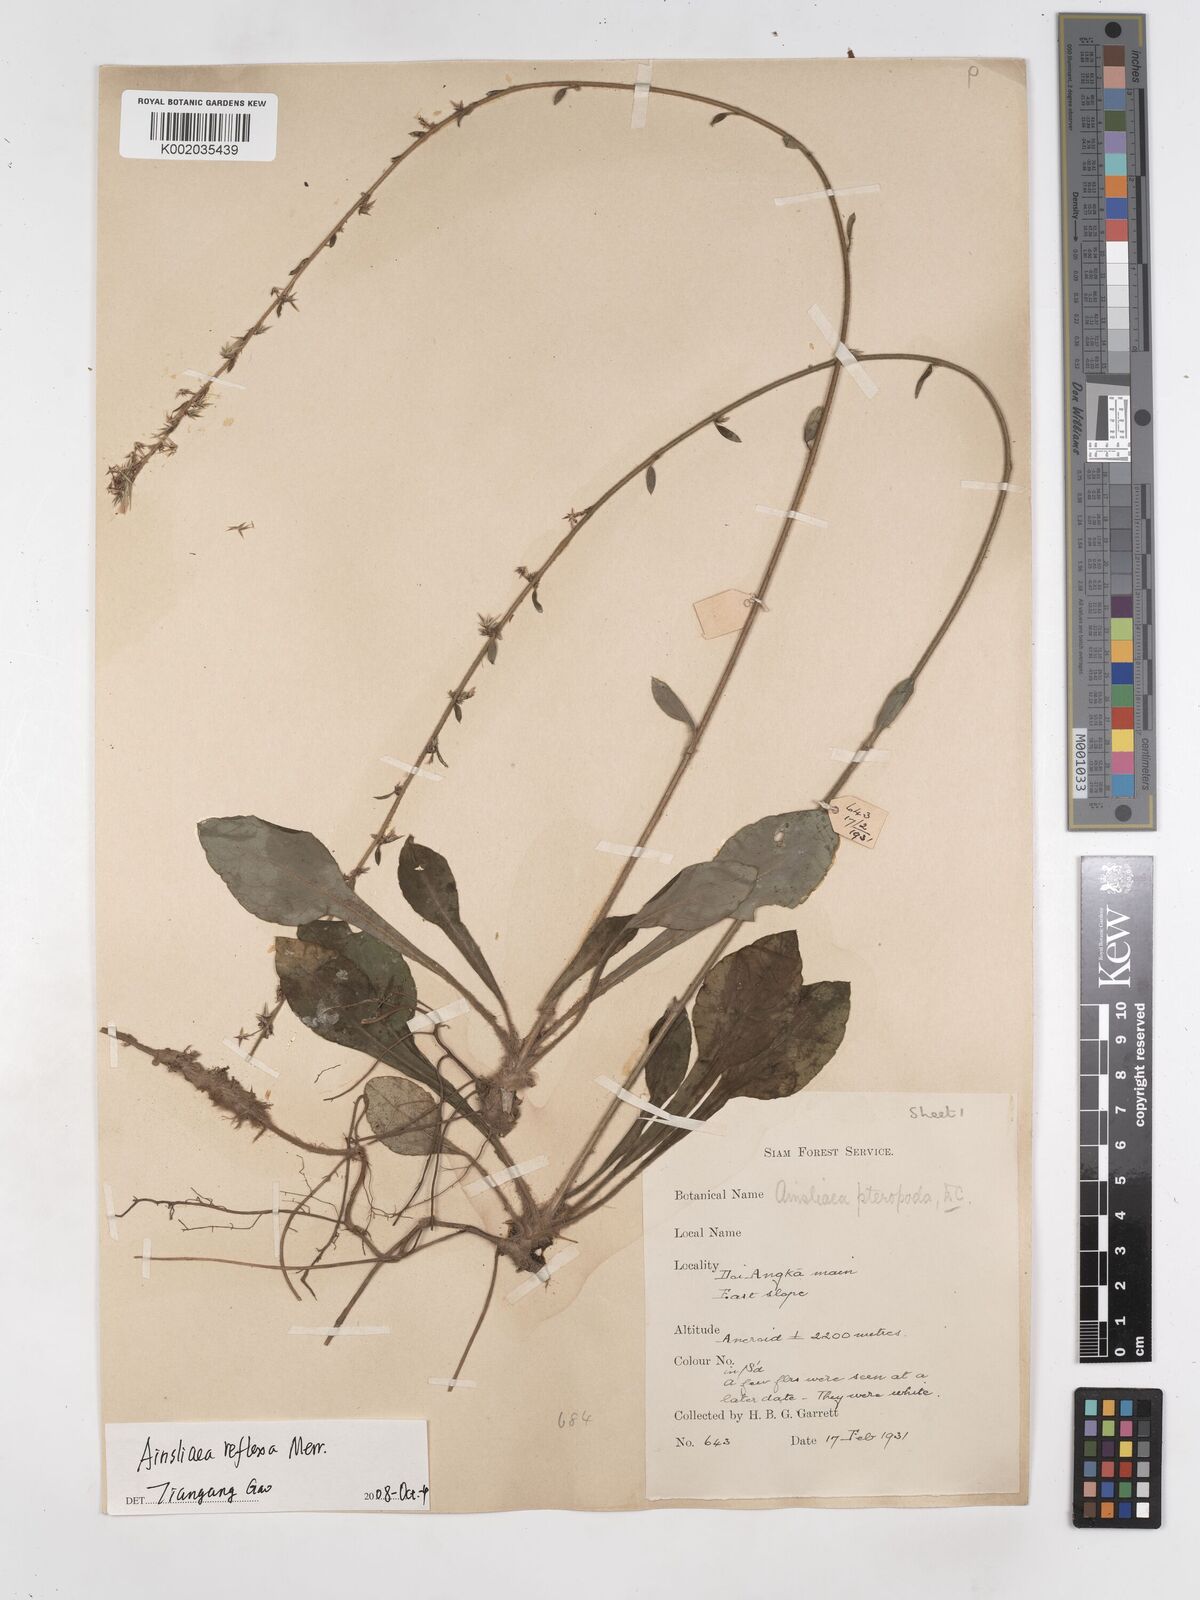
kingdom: Plantae
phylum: Tracheophyta
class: Magnoliopsida
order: Asterales
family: Asteraceae
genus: Ainsliaea
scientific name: Ainsliaea reflexa
